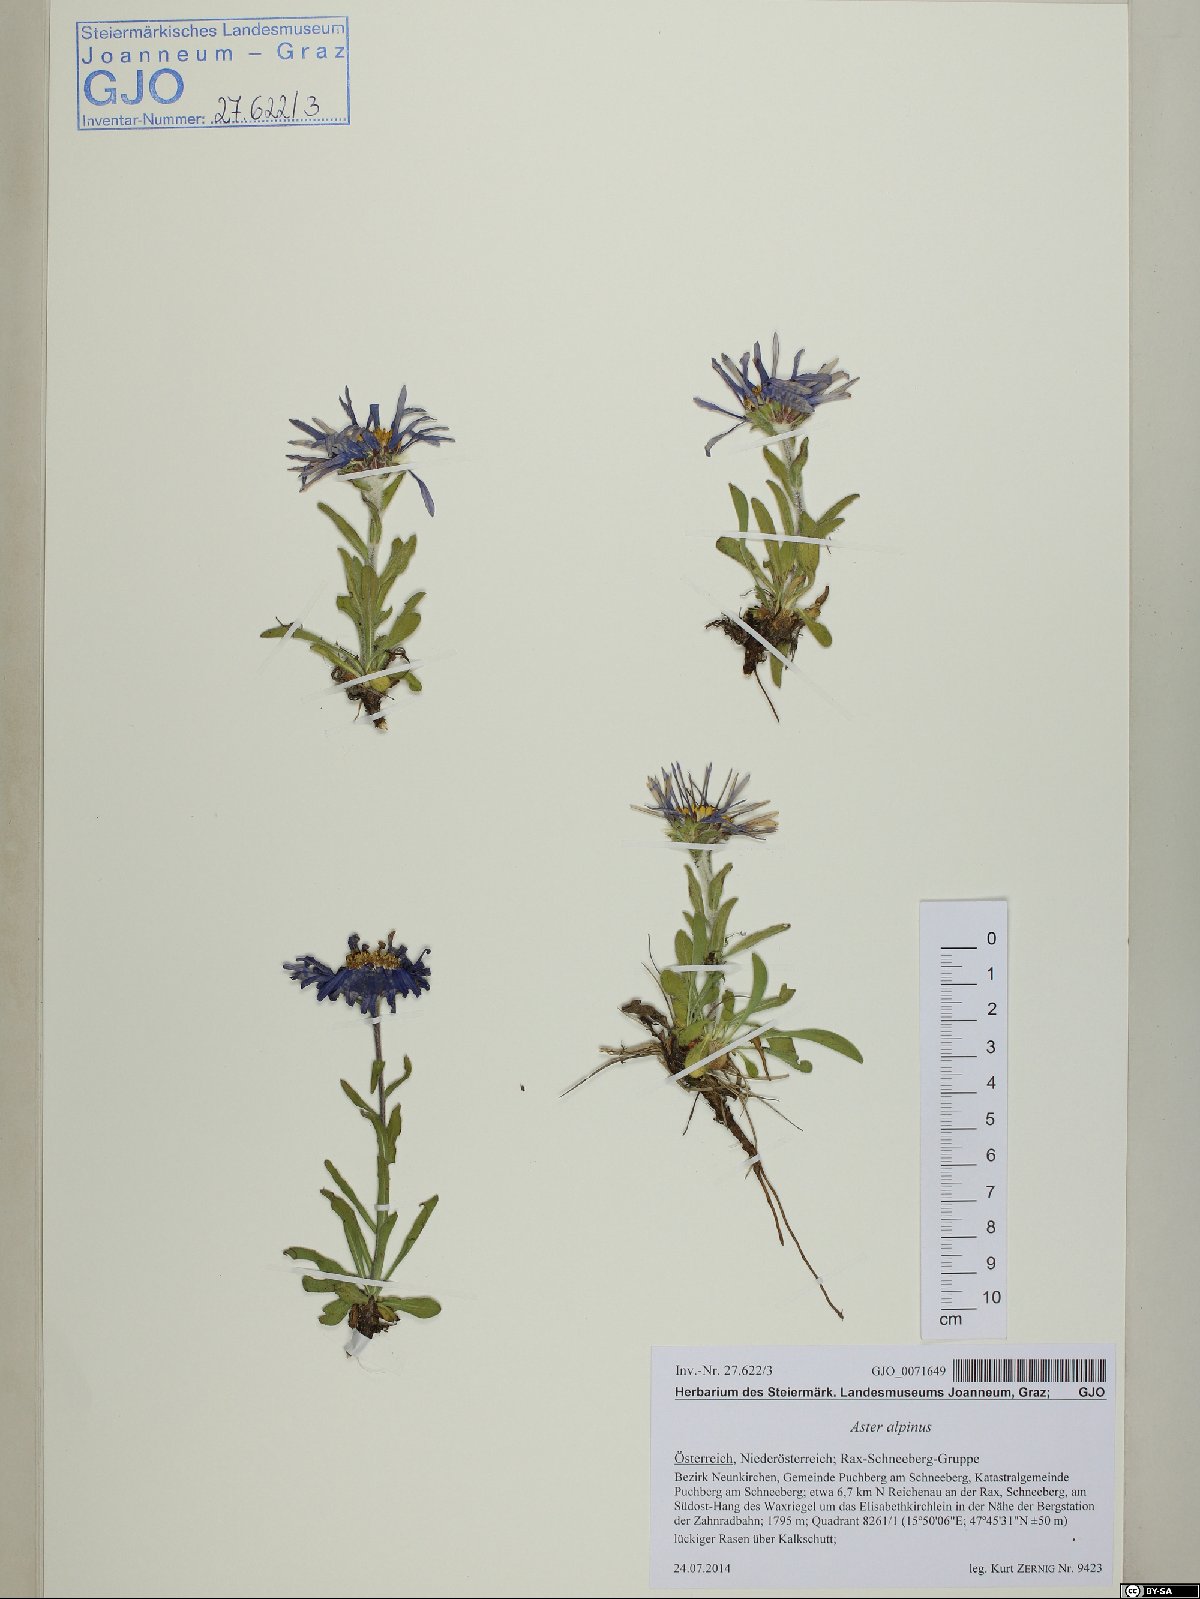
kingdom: Plantae
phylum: Tracheophyta
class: Magnoliopsida
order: Asterales
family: Asteraceae
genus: Aster
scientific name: Aster alpinus
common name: Alpine aster
